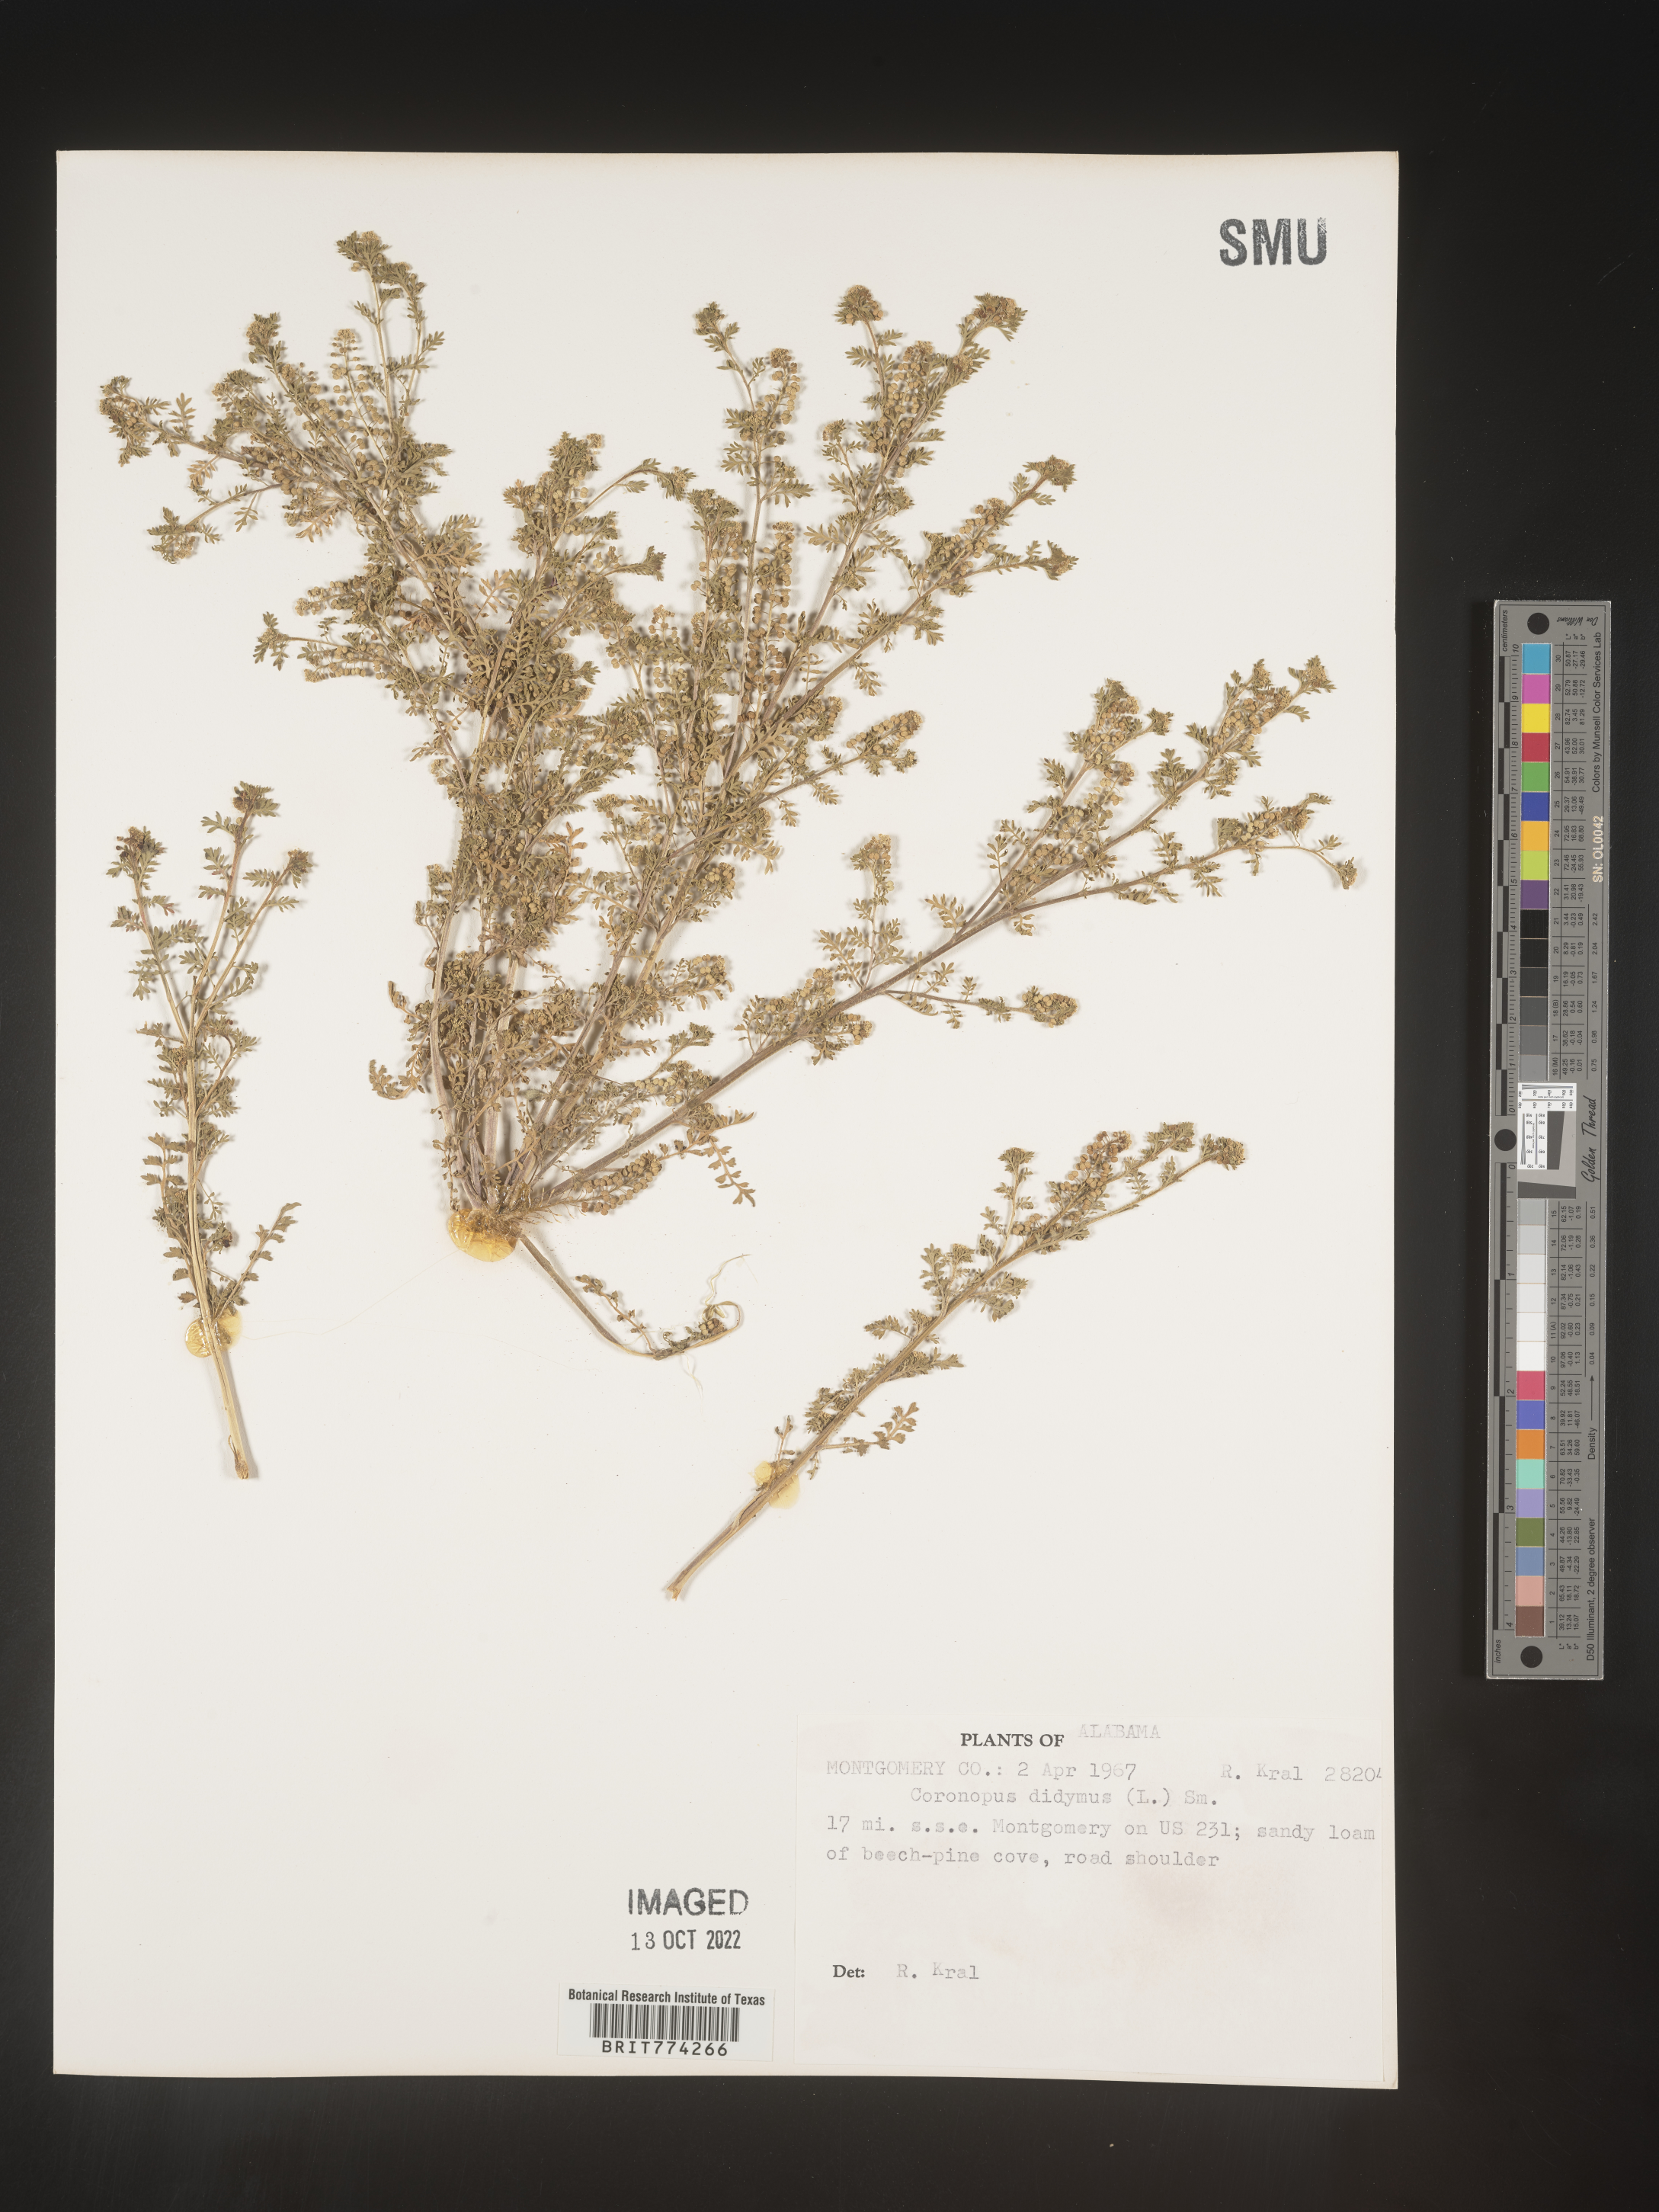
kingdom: Plantae
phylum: Tracheophyta
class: Magnoliopsida
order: Brassicales
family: Brassicaceae
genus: Coronopus
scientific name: Coronopus
